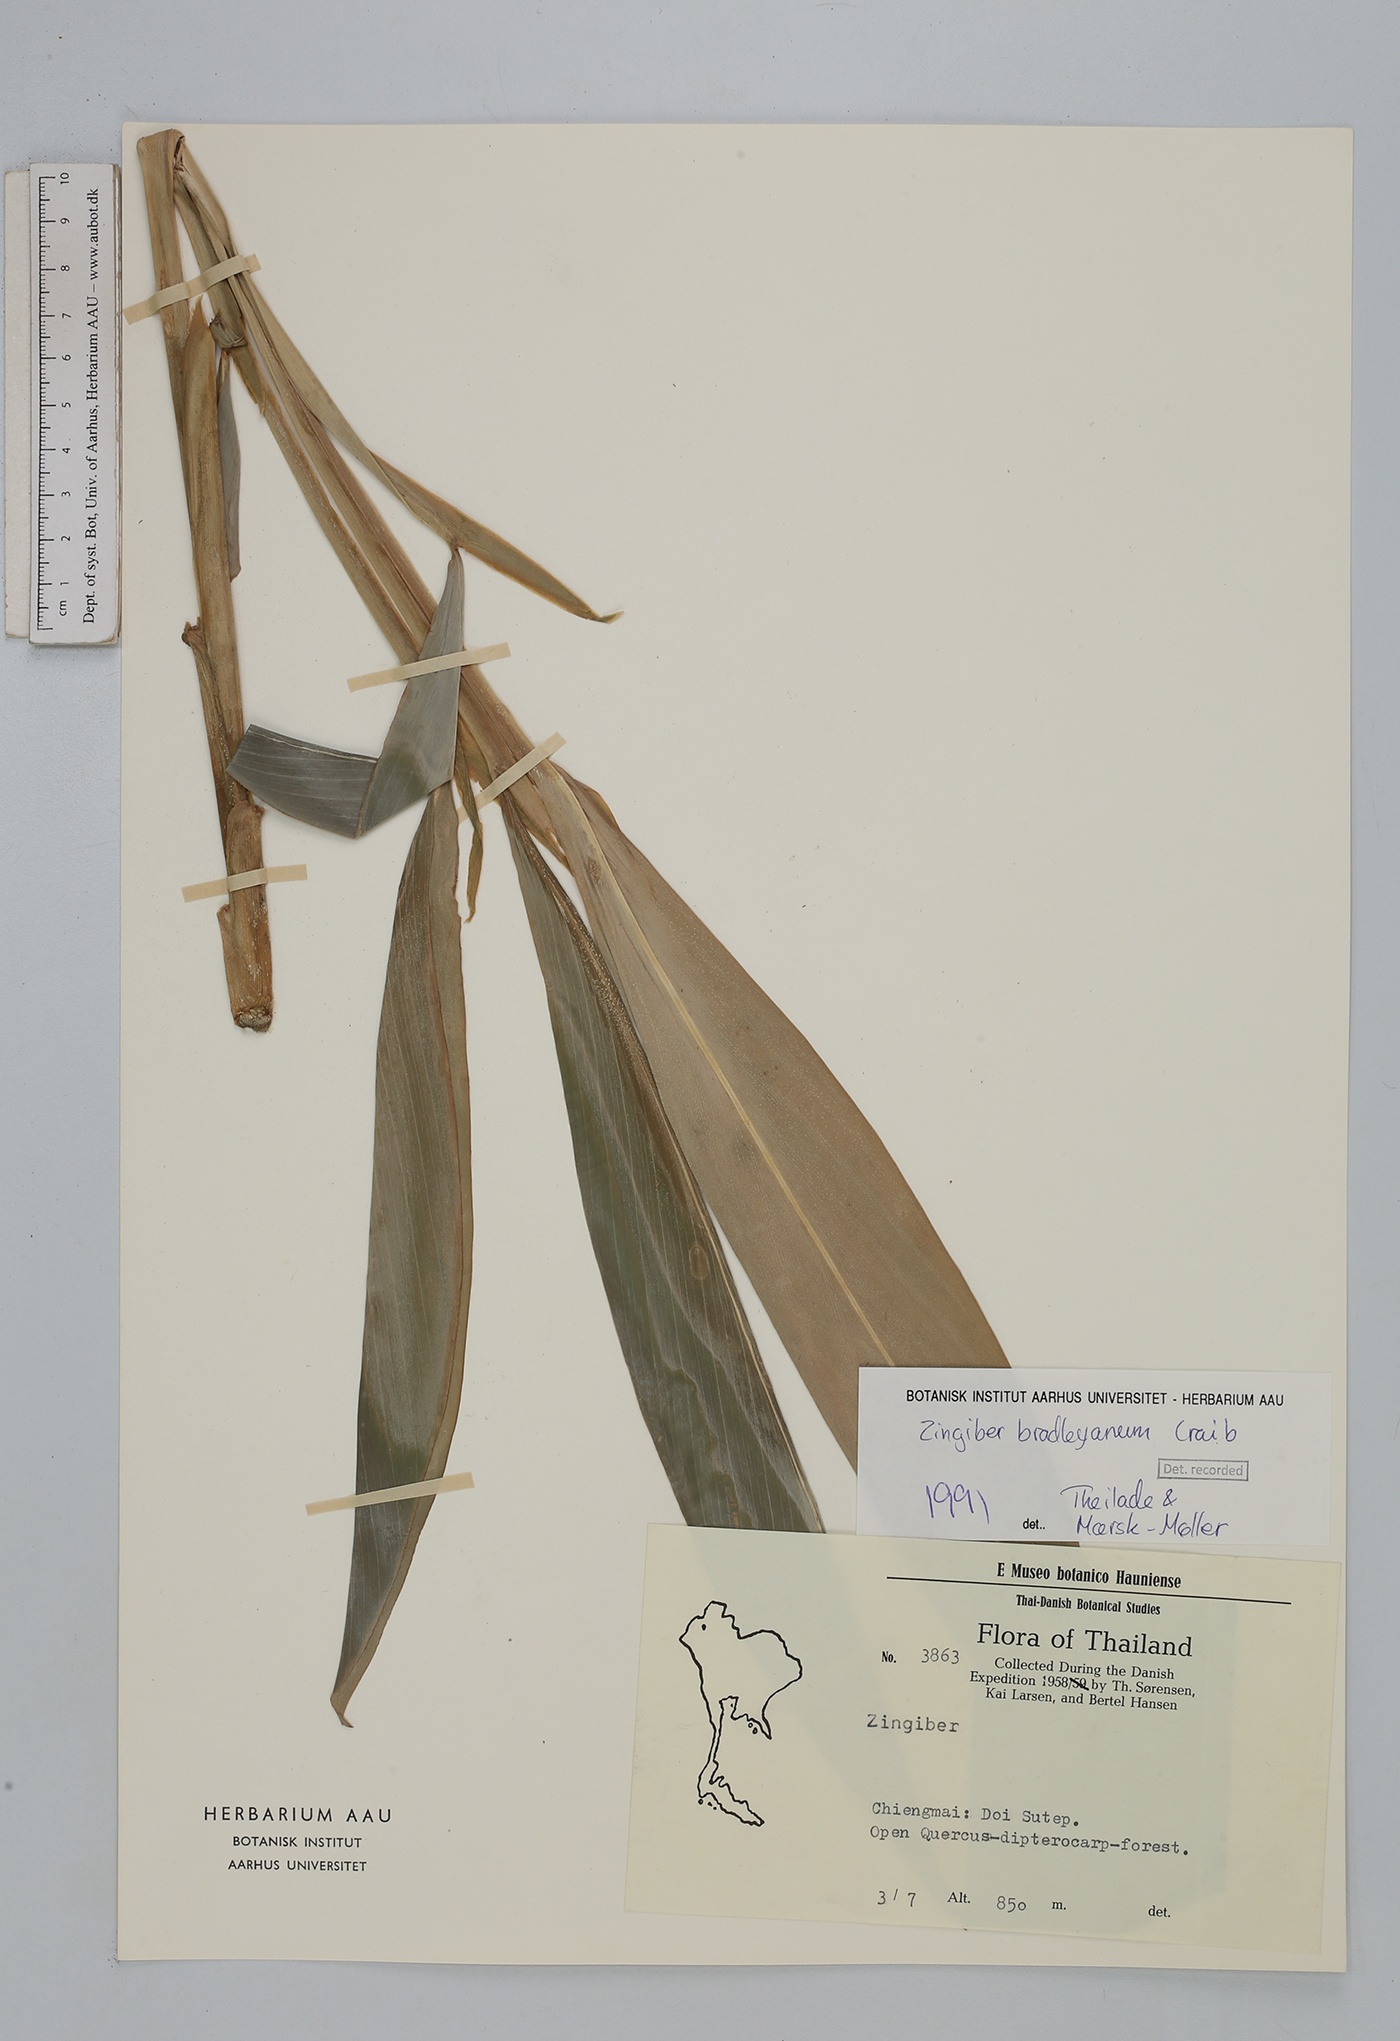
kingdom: Plantae
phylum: Tracheophyta
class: Liliopsida
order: Zingiberales
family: Zingiberaceae
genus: Zingiber
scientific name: Zingiber bradleyanum
